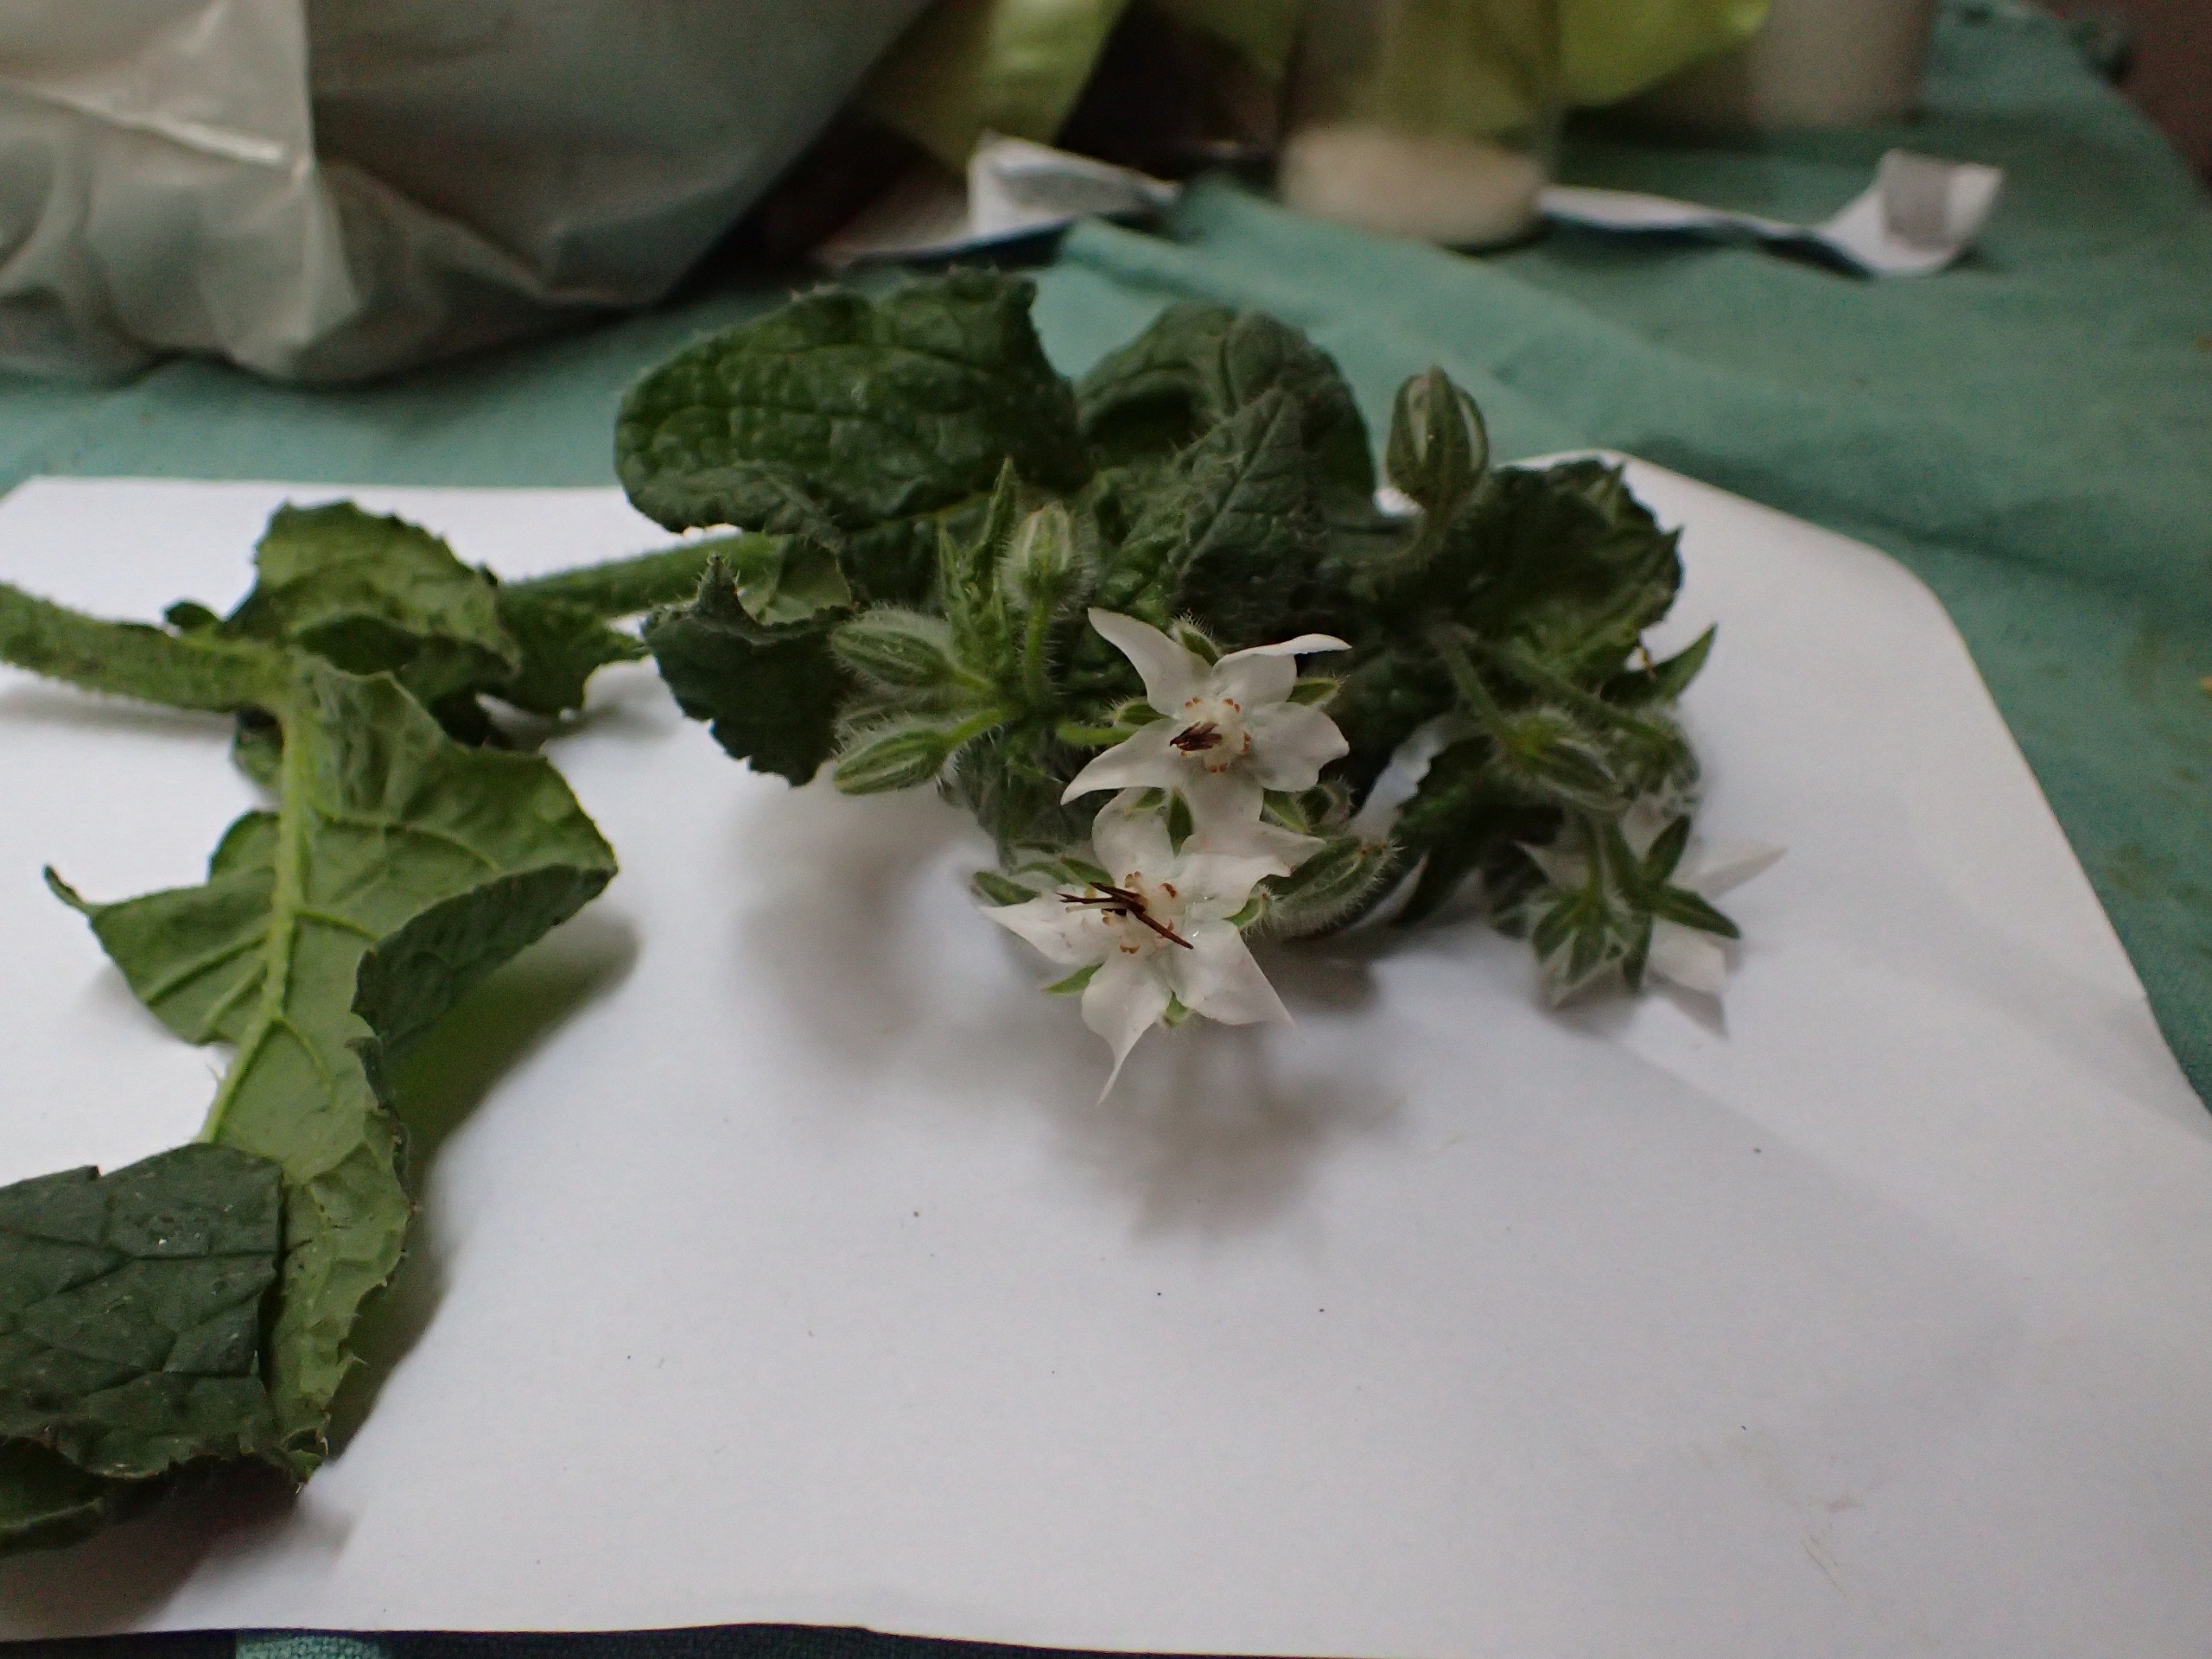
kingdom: Plantae
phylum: Tracheophyta
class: Magnoliopsida
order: Boraginales
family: Boraginaceae
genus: Borago
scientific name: Borago officinalis
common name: Hjulkrone
